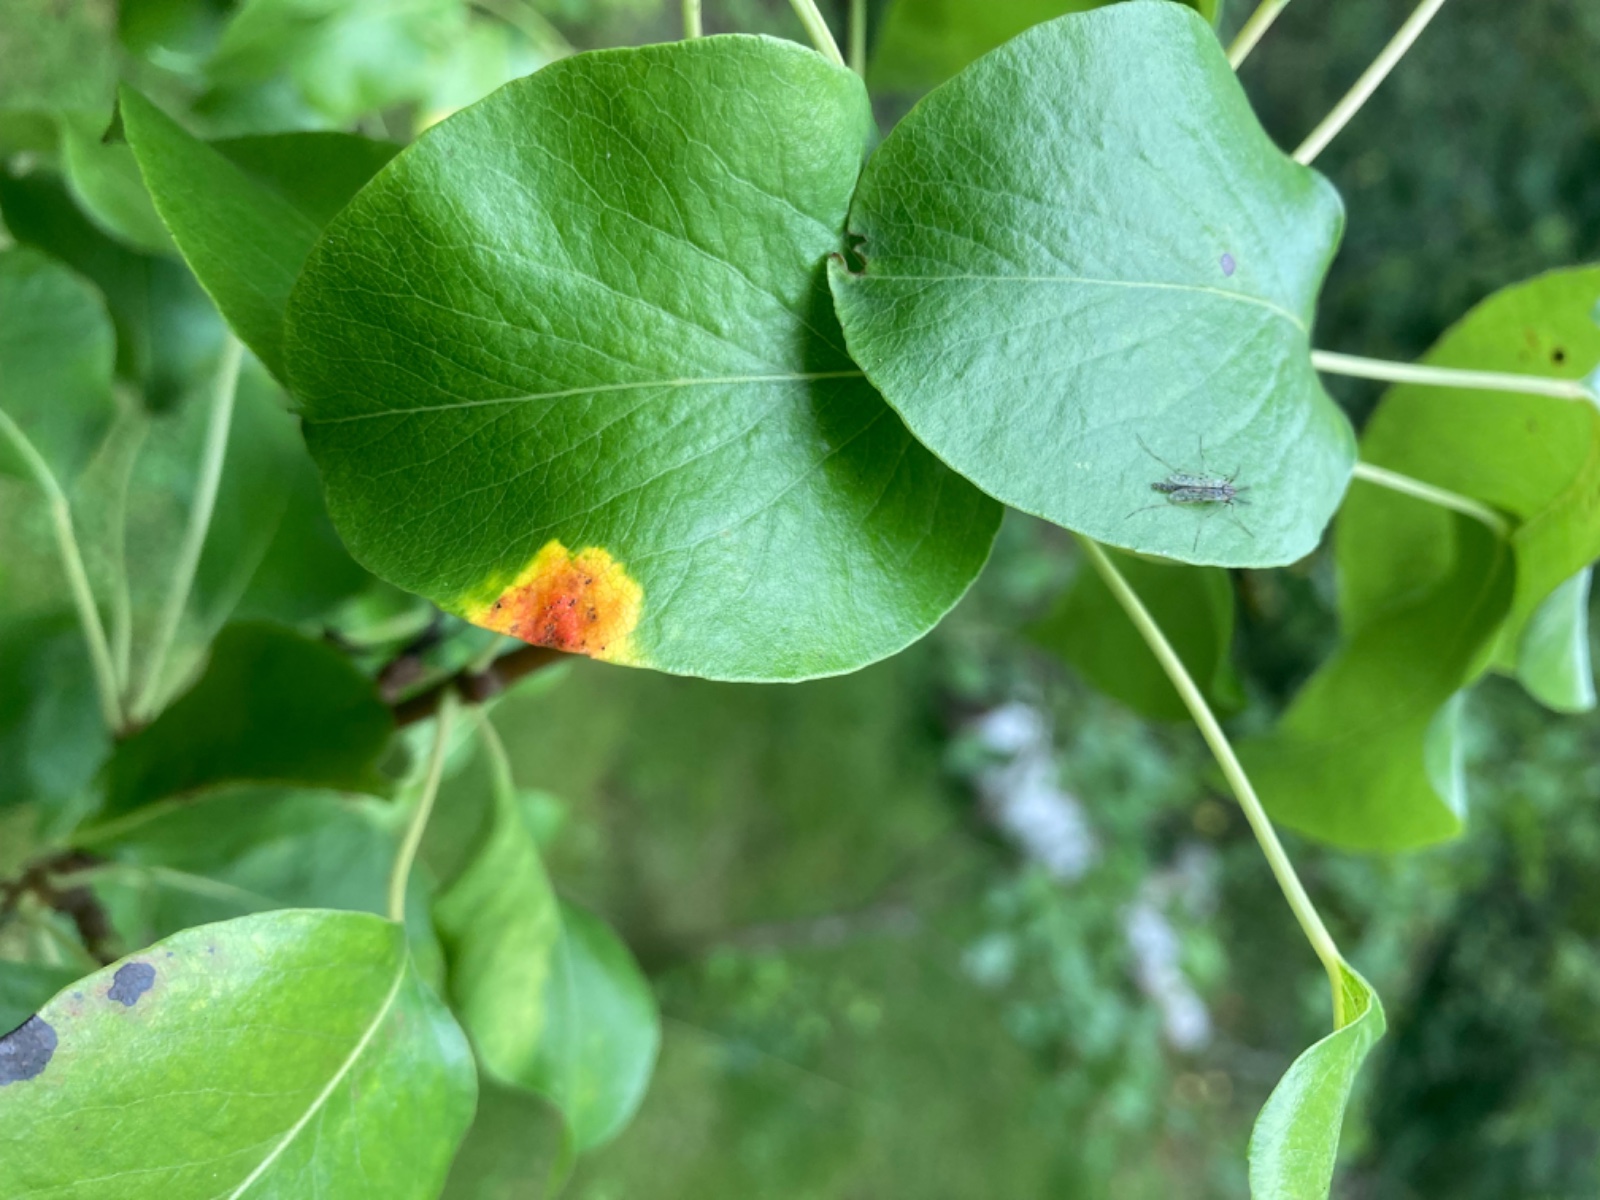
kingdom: Fungi
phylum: Basidiomycota
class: Pucciniomycetes
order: Pucciniales
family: Gymnosporangiaceae
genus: Gymnosporangium
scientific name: Gymnosporangium sabinae
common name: pæregitter-bævrerust
